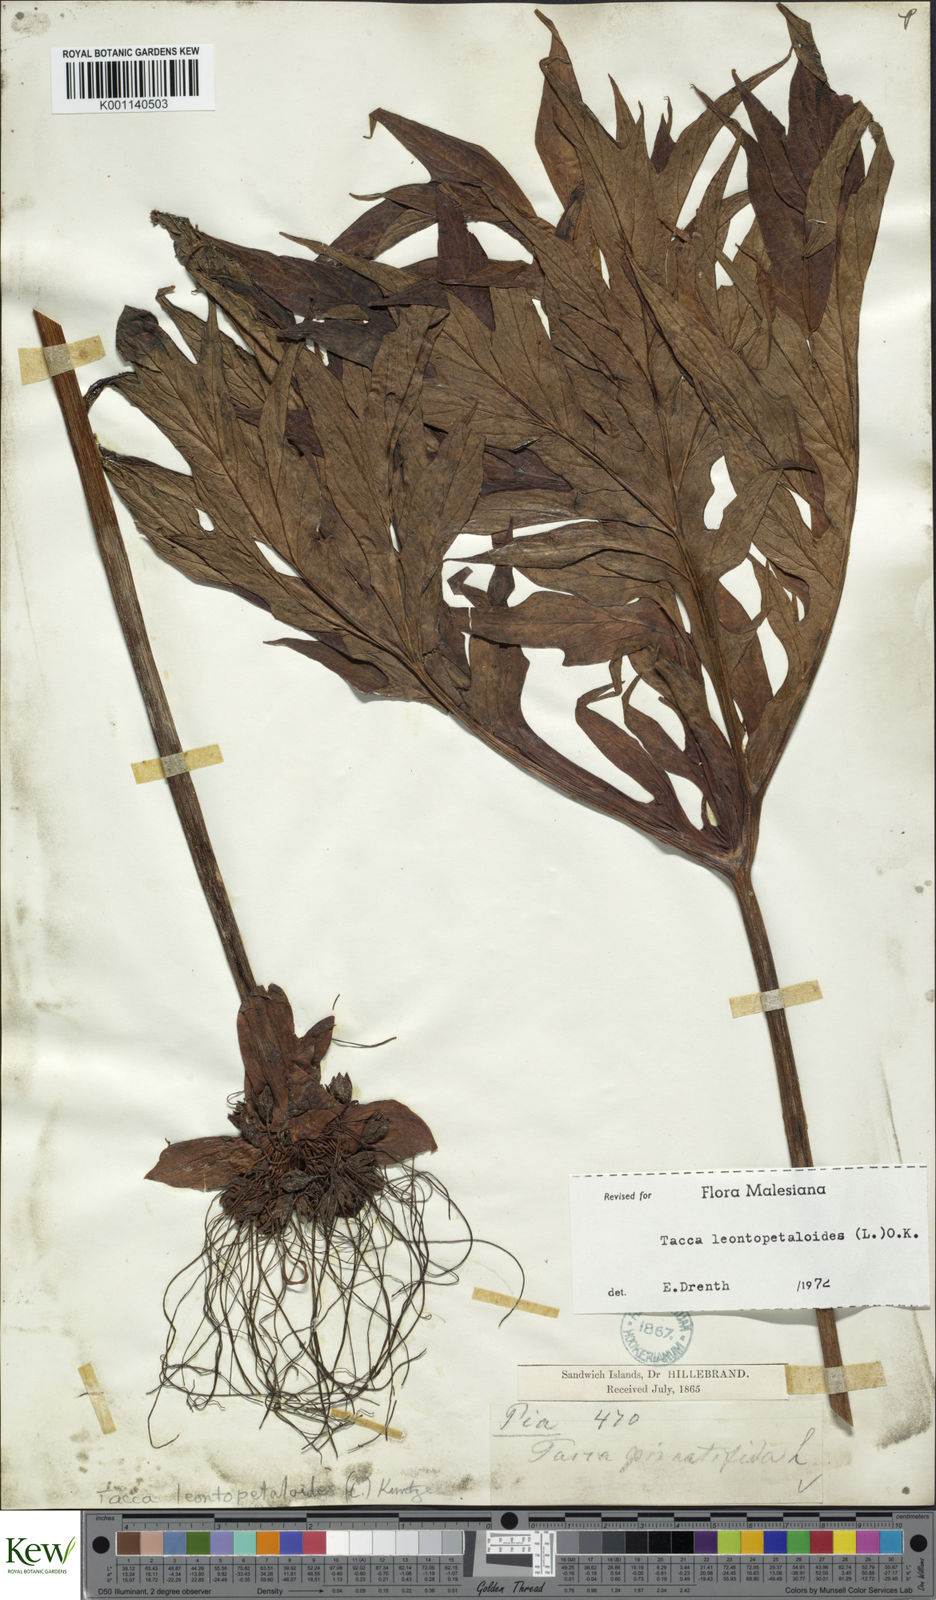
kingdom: Plantae
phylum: Tracheophyta
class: Liliopsida
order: Dioscoreales
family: Dioscoreaceae
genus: Tacca
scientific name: Tacca leontopetaloides
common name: Arrowroot
